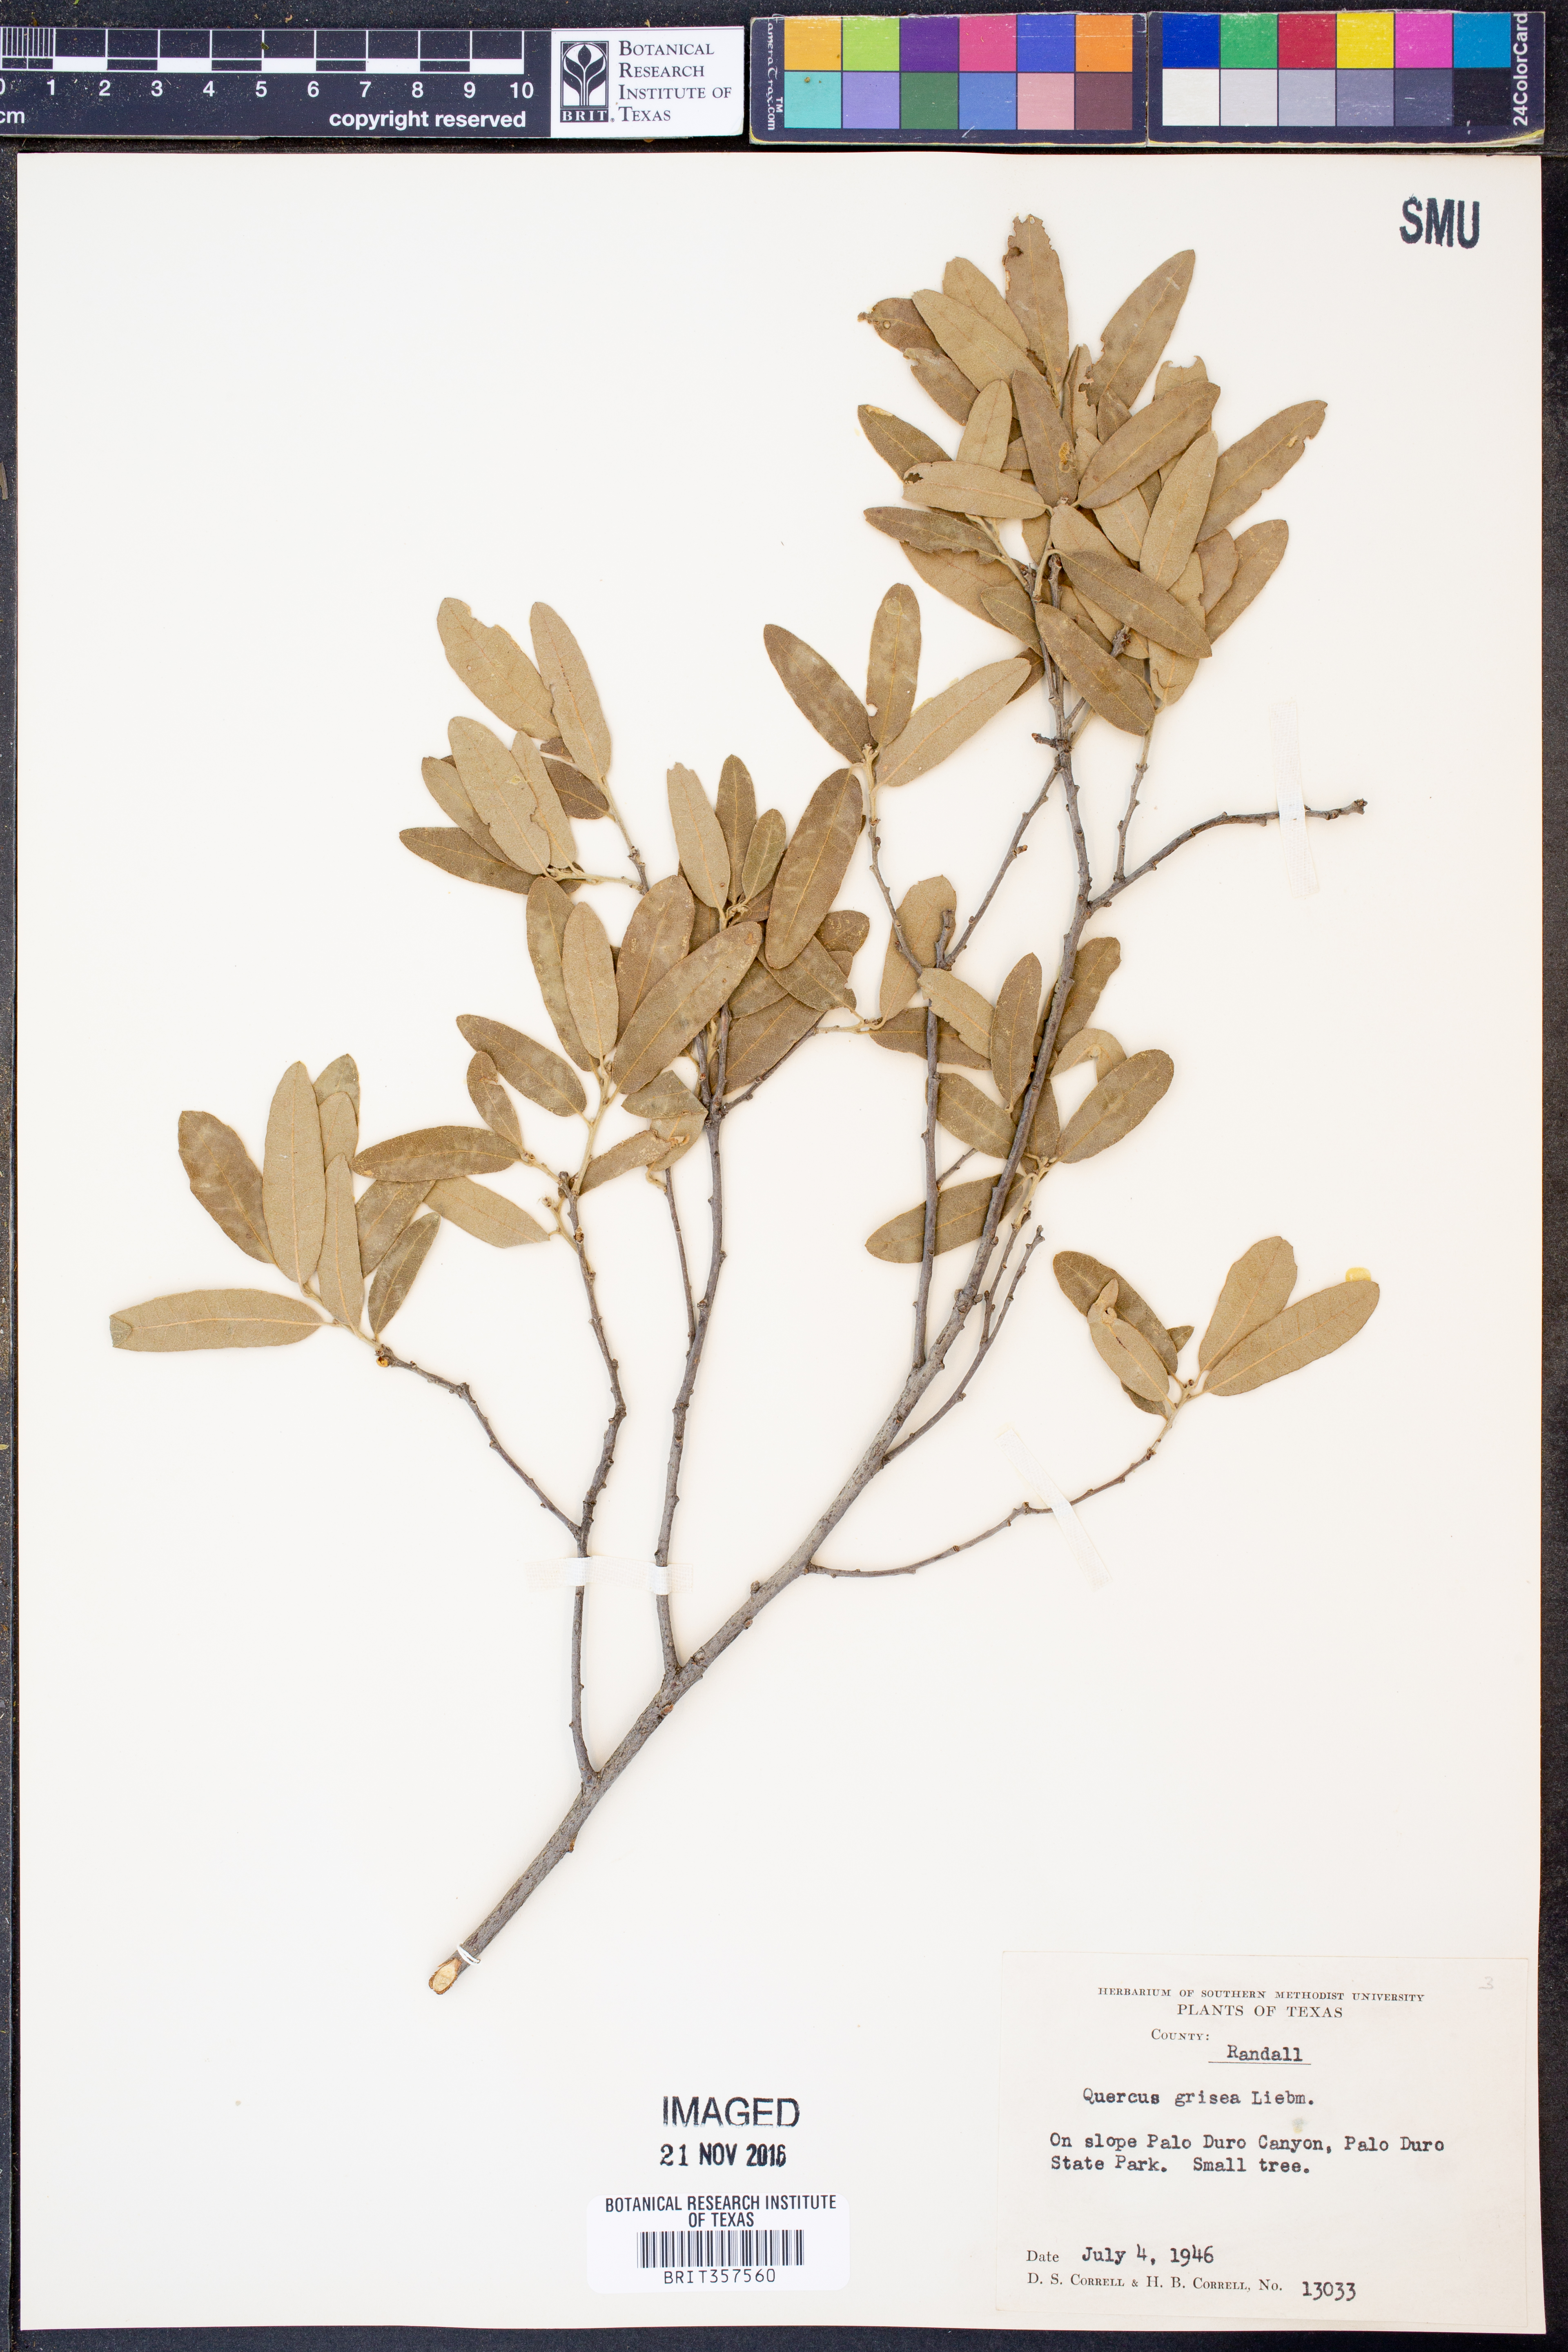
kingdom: Plantae
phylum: Tracheophyta
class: Magnoliopsida
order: Fagales
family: Fagaceae
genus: Quercus
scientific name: Quercus grisea
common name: Gray oak
